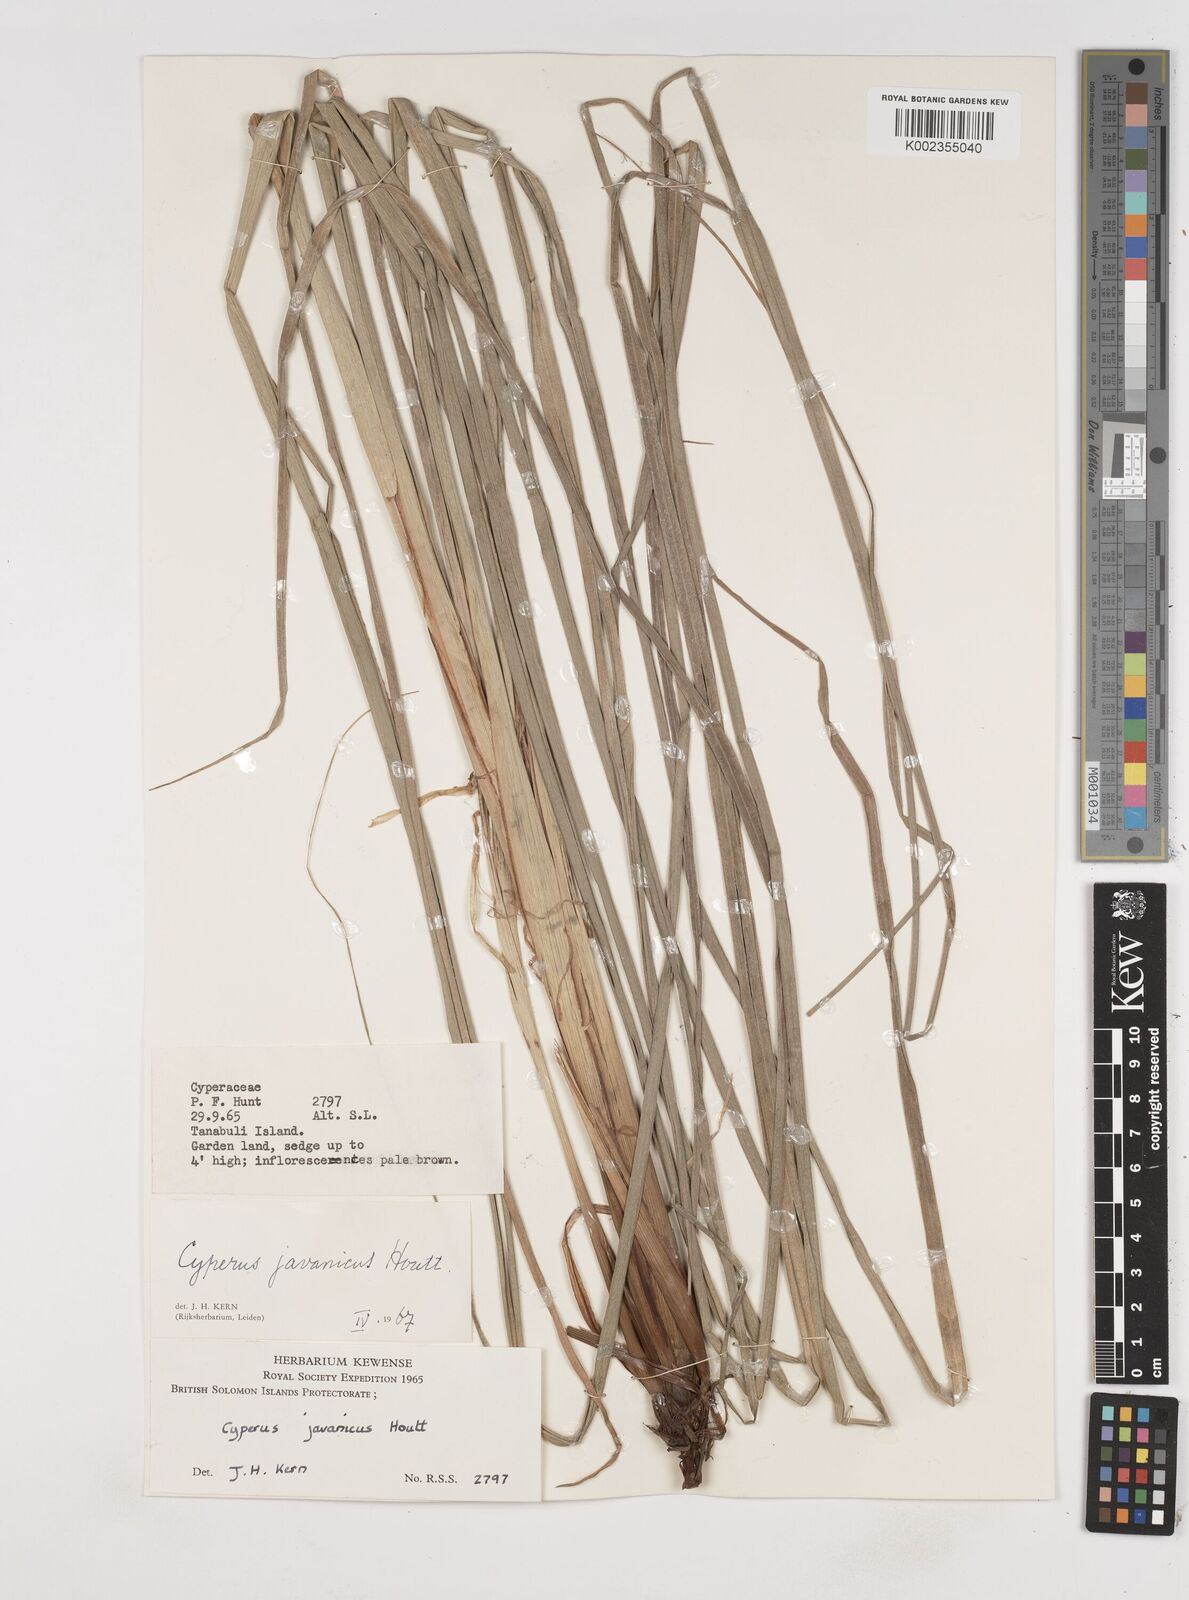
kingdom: Plantae
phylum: Tracheophyta
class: Liliopsida
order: Poales
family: Cyperaceae
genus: Cyperus
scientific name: Cyperus javanicus
